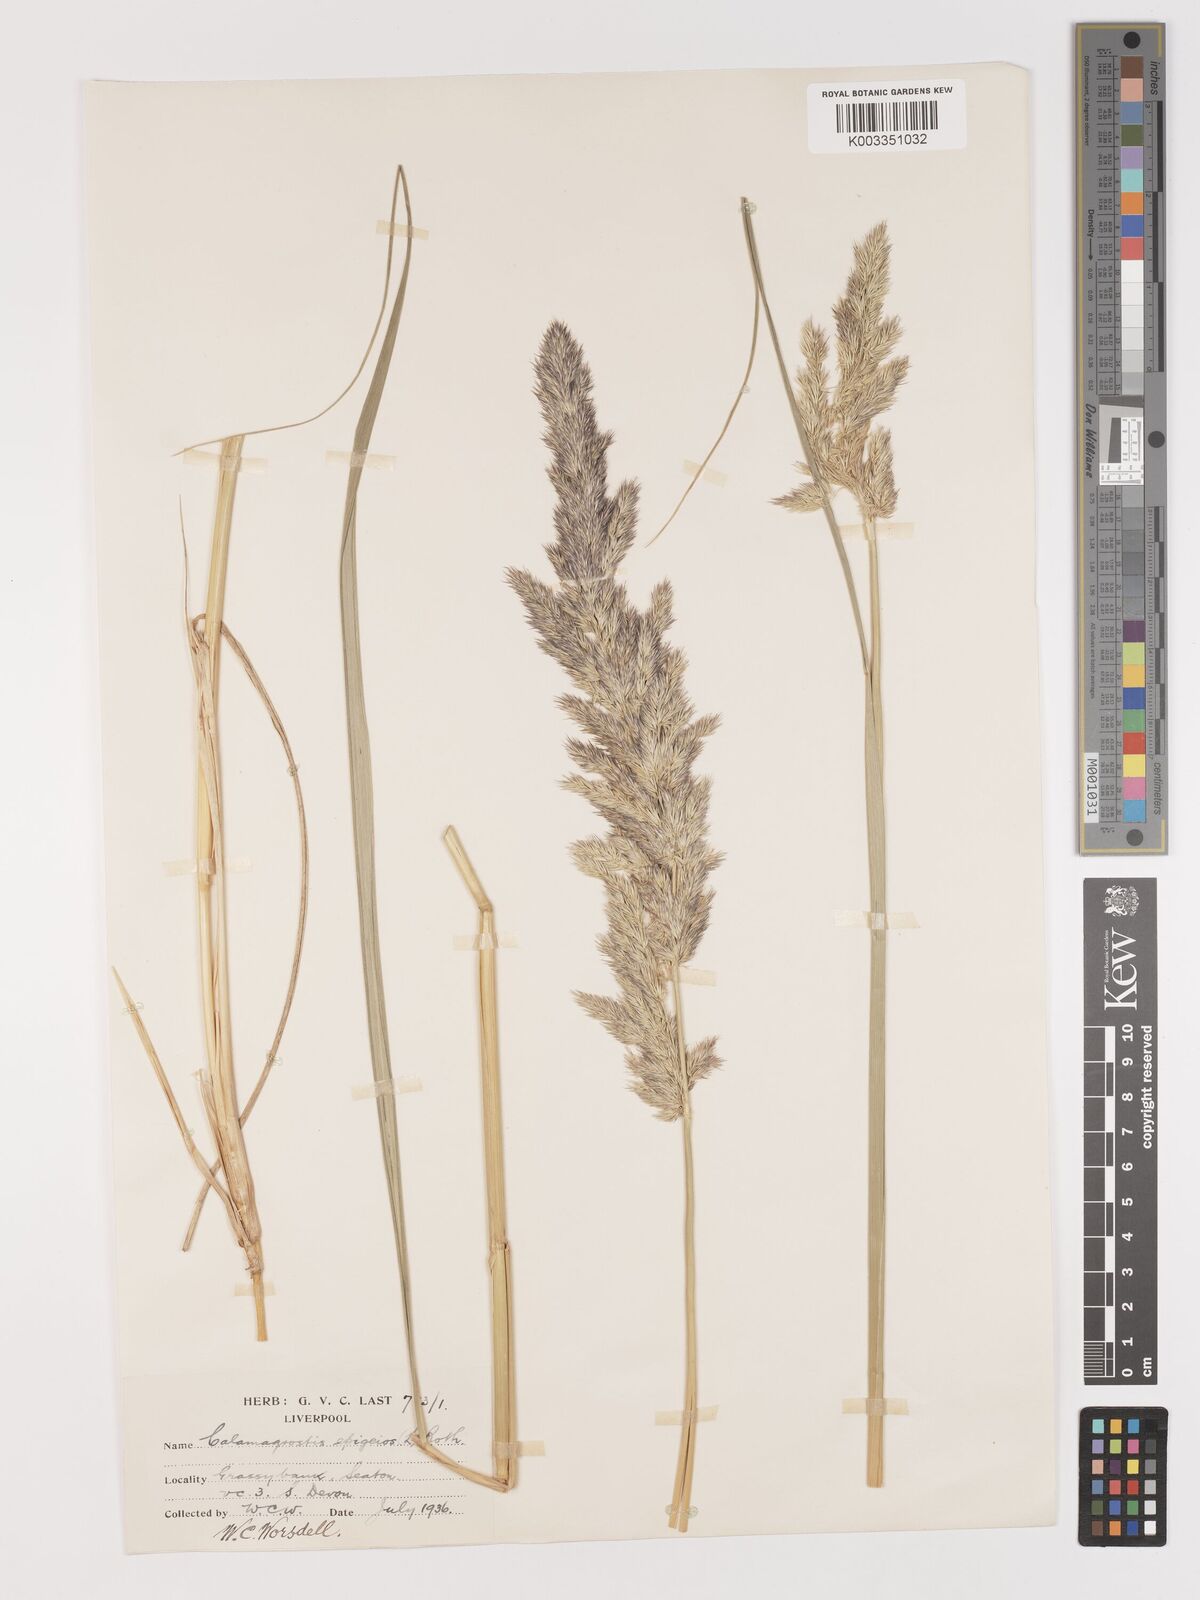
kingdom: Plantae
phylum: Tracheophyta
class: Liliopsida
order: Poales
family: Poaceae
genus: Calamagrostis
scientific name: Calamagrostis epigejos
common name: Wood small-reed
